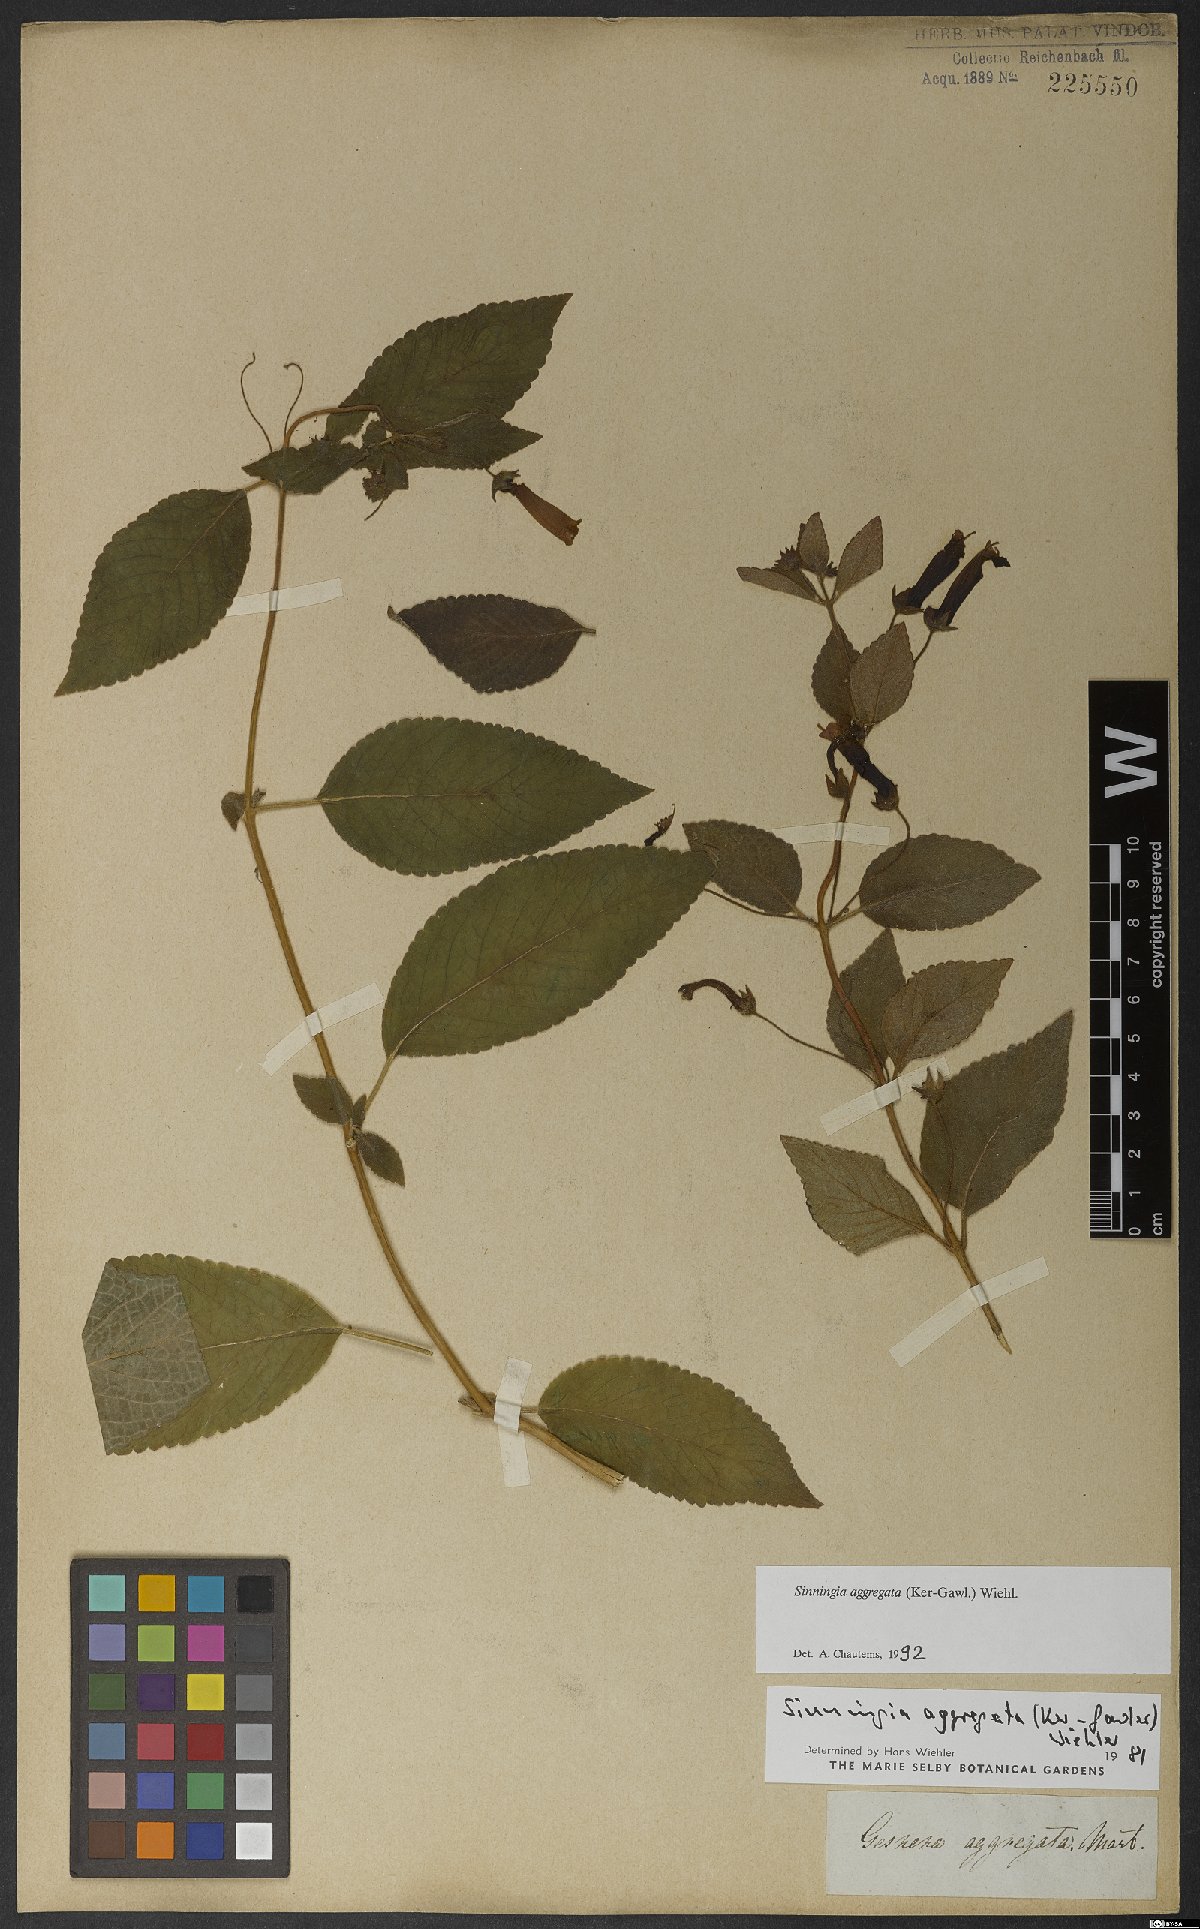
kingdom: Plantae
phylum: Tracheophyta
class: Magnoliopsida
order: Lamiales
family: Gesneriaceae
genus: Sinningia
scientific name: Sinningia aggregata
